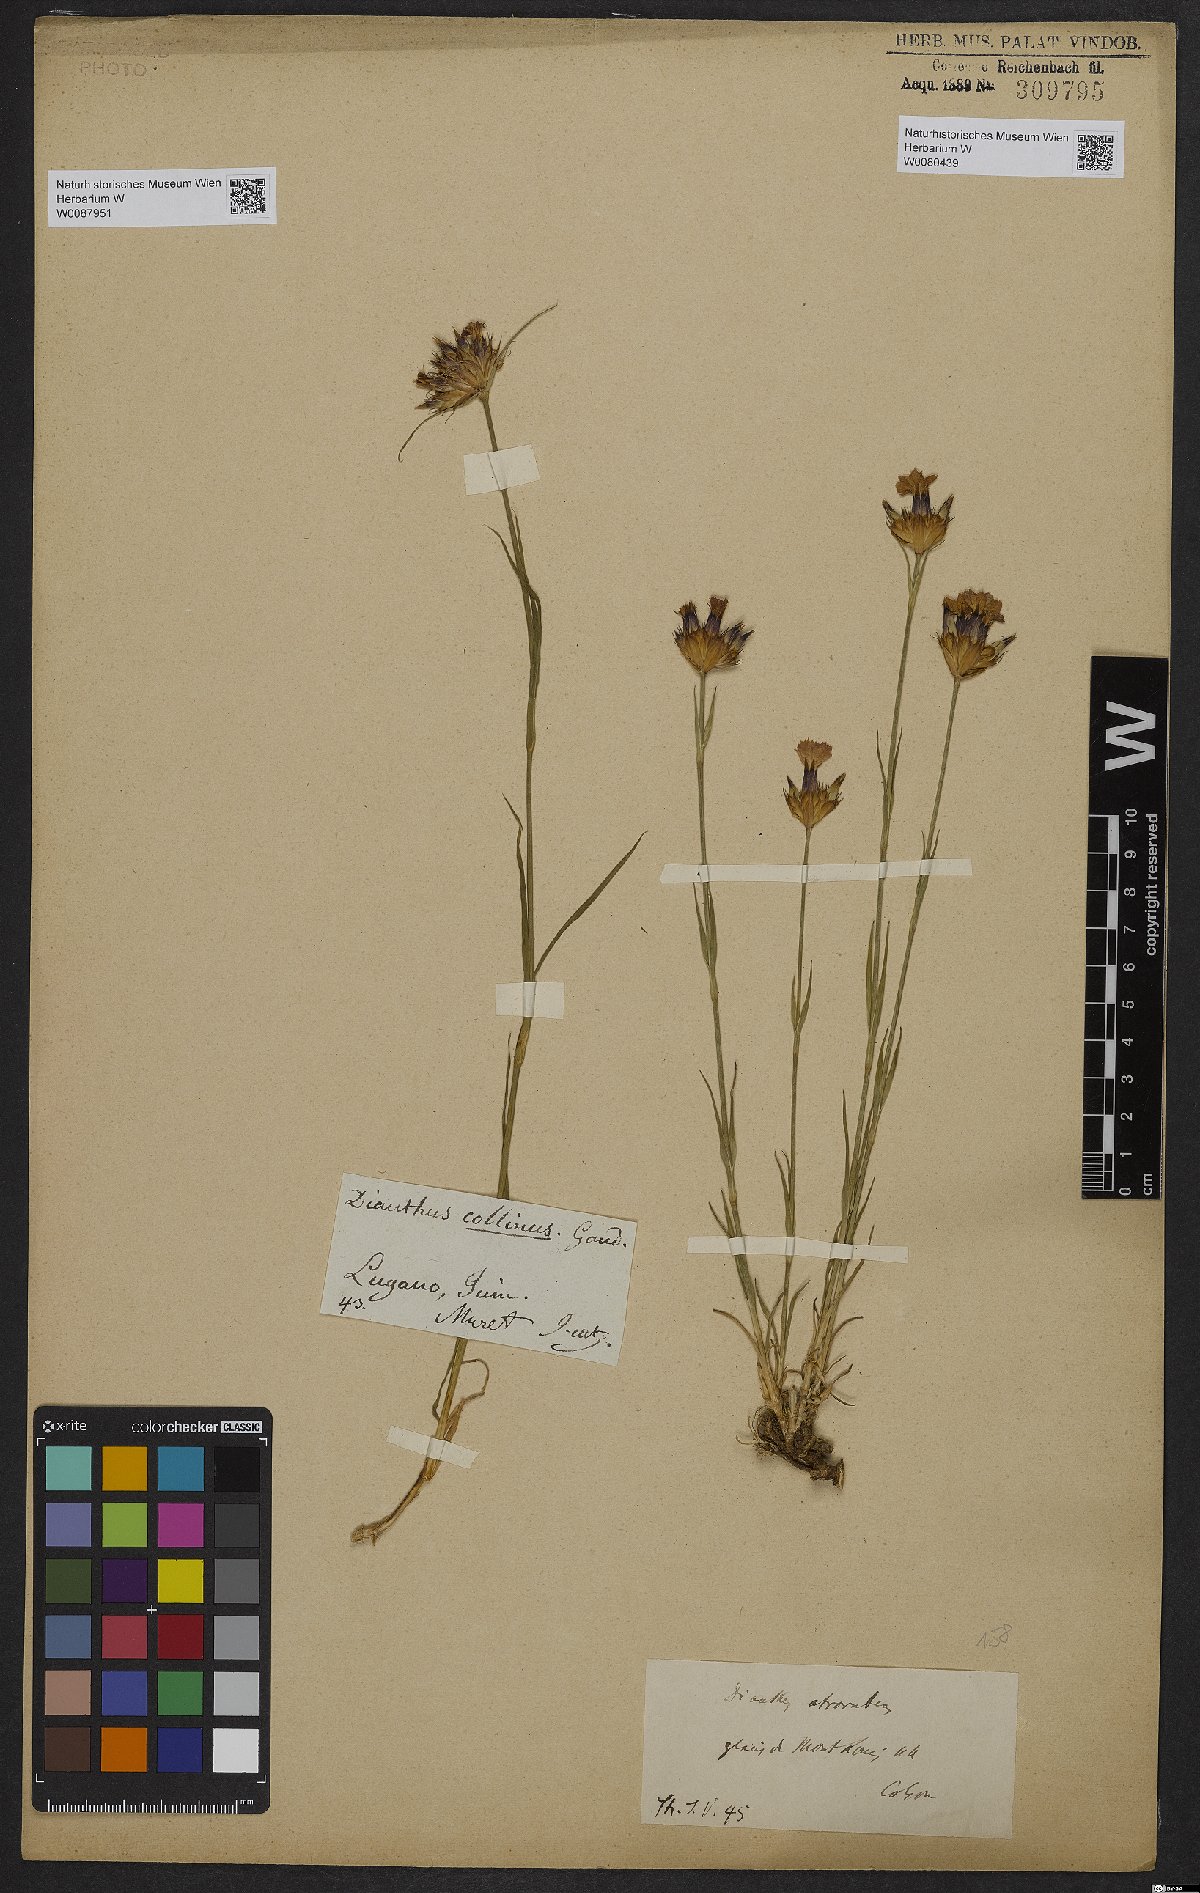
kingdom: Plantae
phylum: Tracheophyta
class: Magnoliopsida
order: Caryophyllales
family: Caryophyllaceae
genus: Dianthus
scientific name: Dianthus carthusianorum
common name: Carthusian pink
